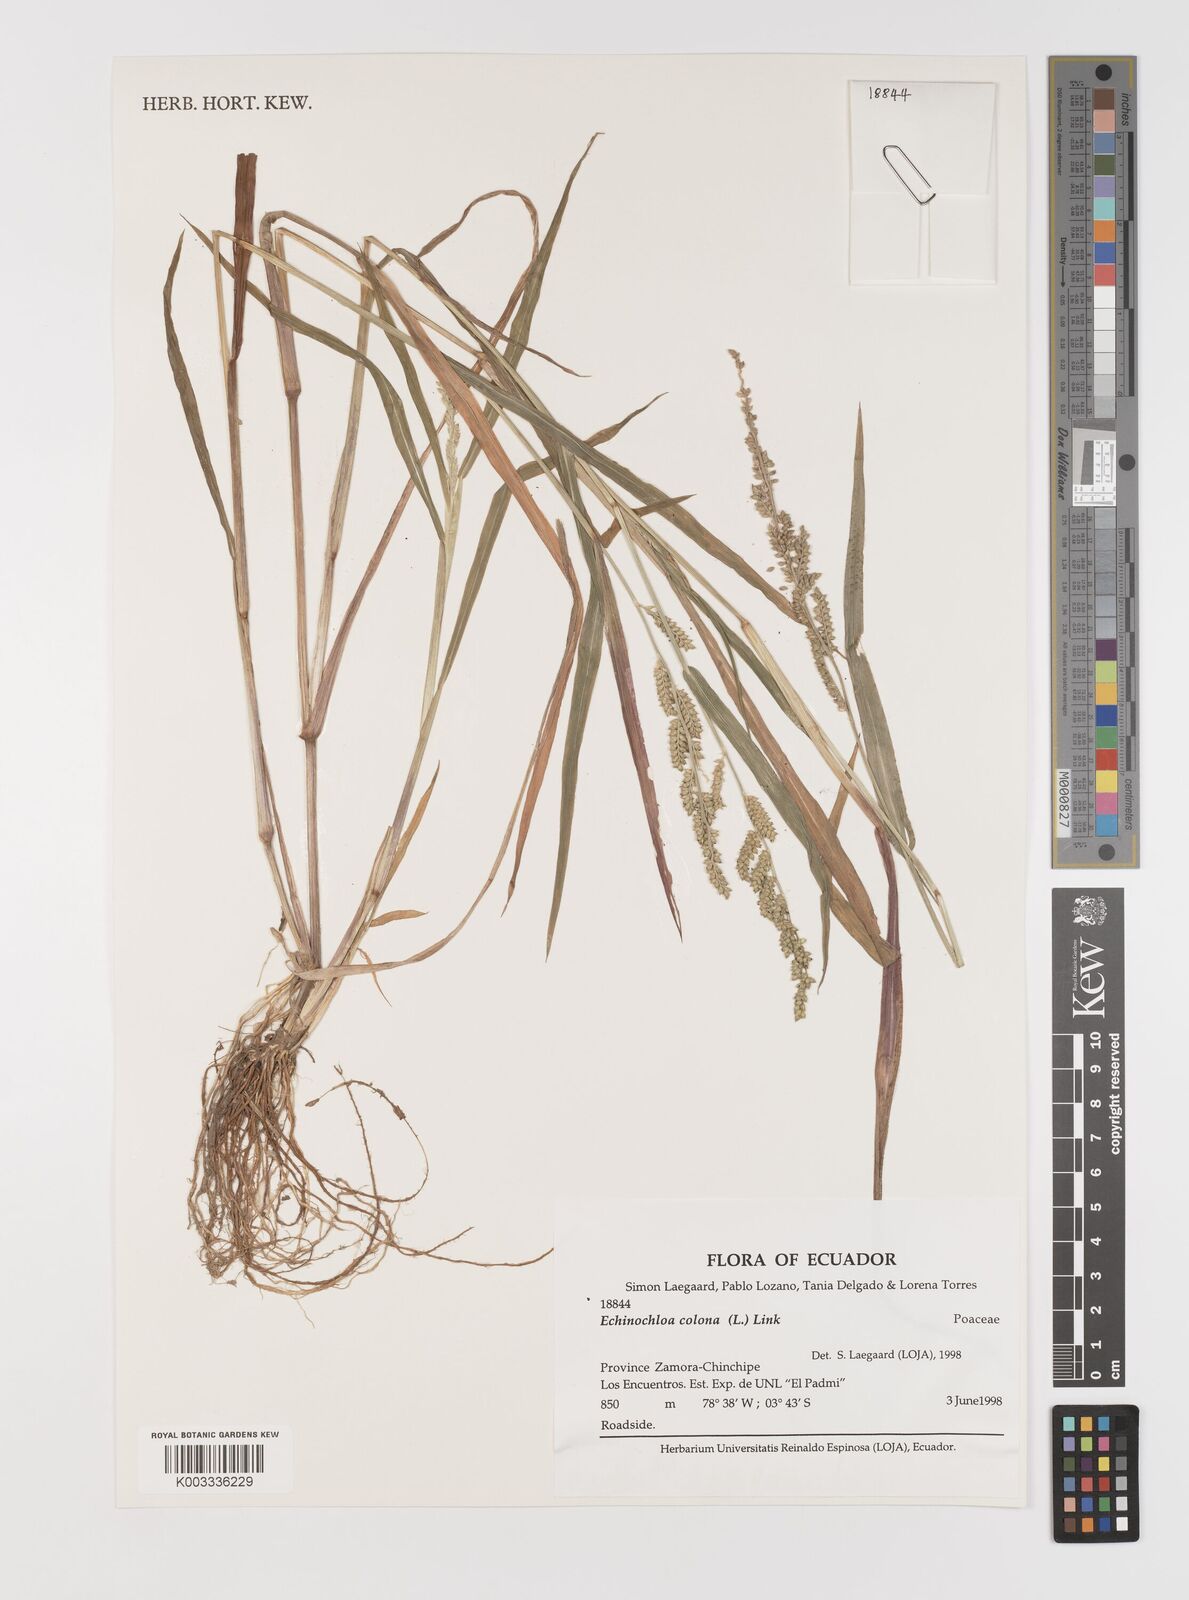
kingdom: Plantae
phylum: Tracheophyta
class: Liliopsida
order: Poales
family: Poaceae
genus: Echinochloa
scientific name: Echinochloa colonum
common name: Jungle rice
